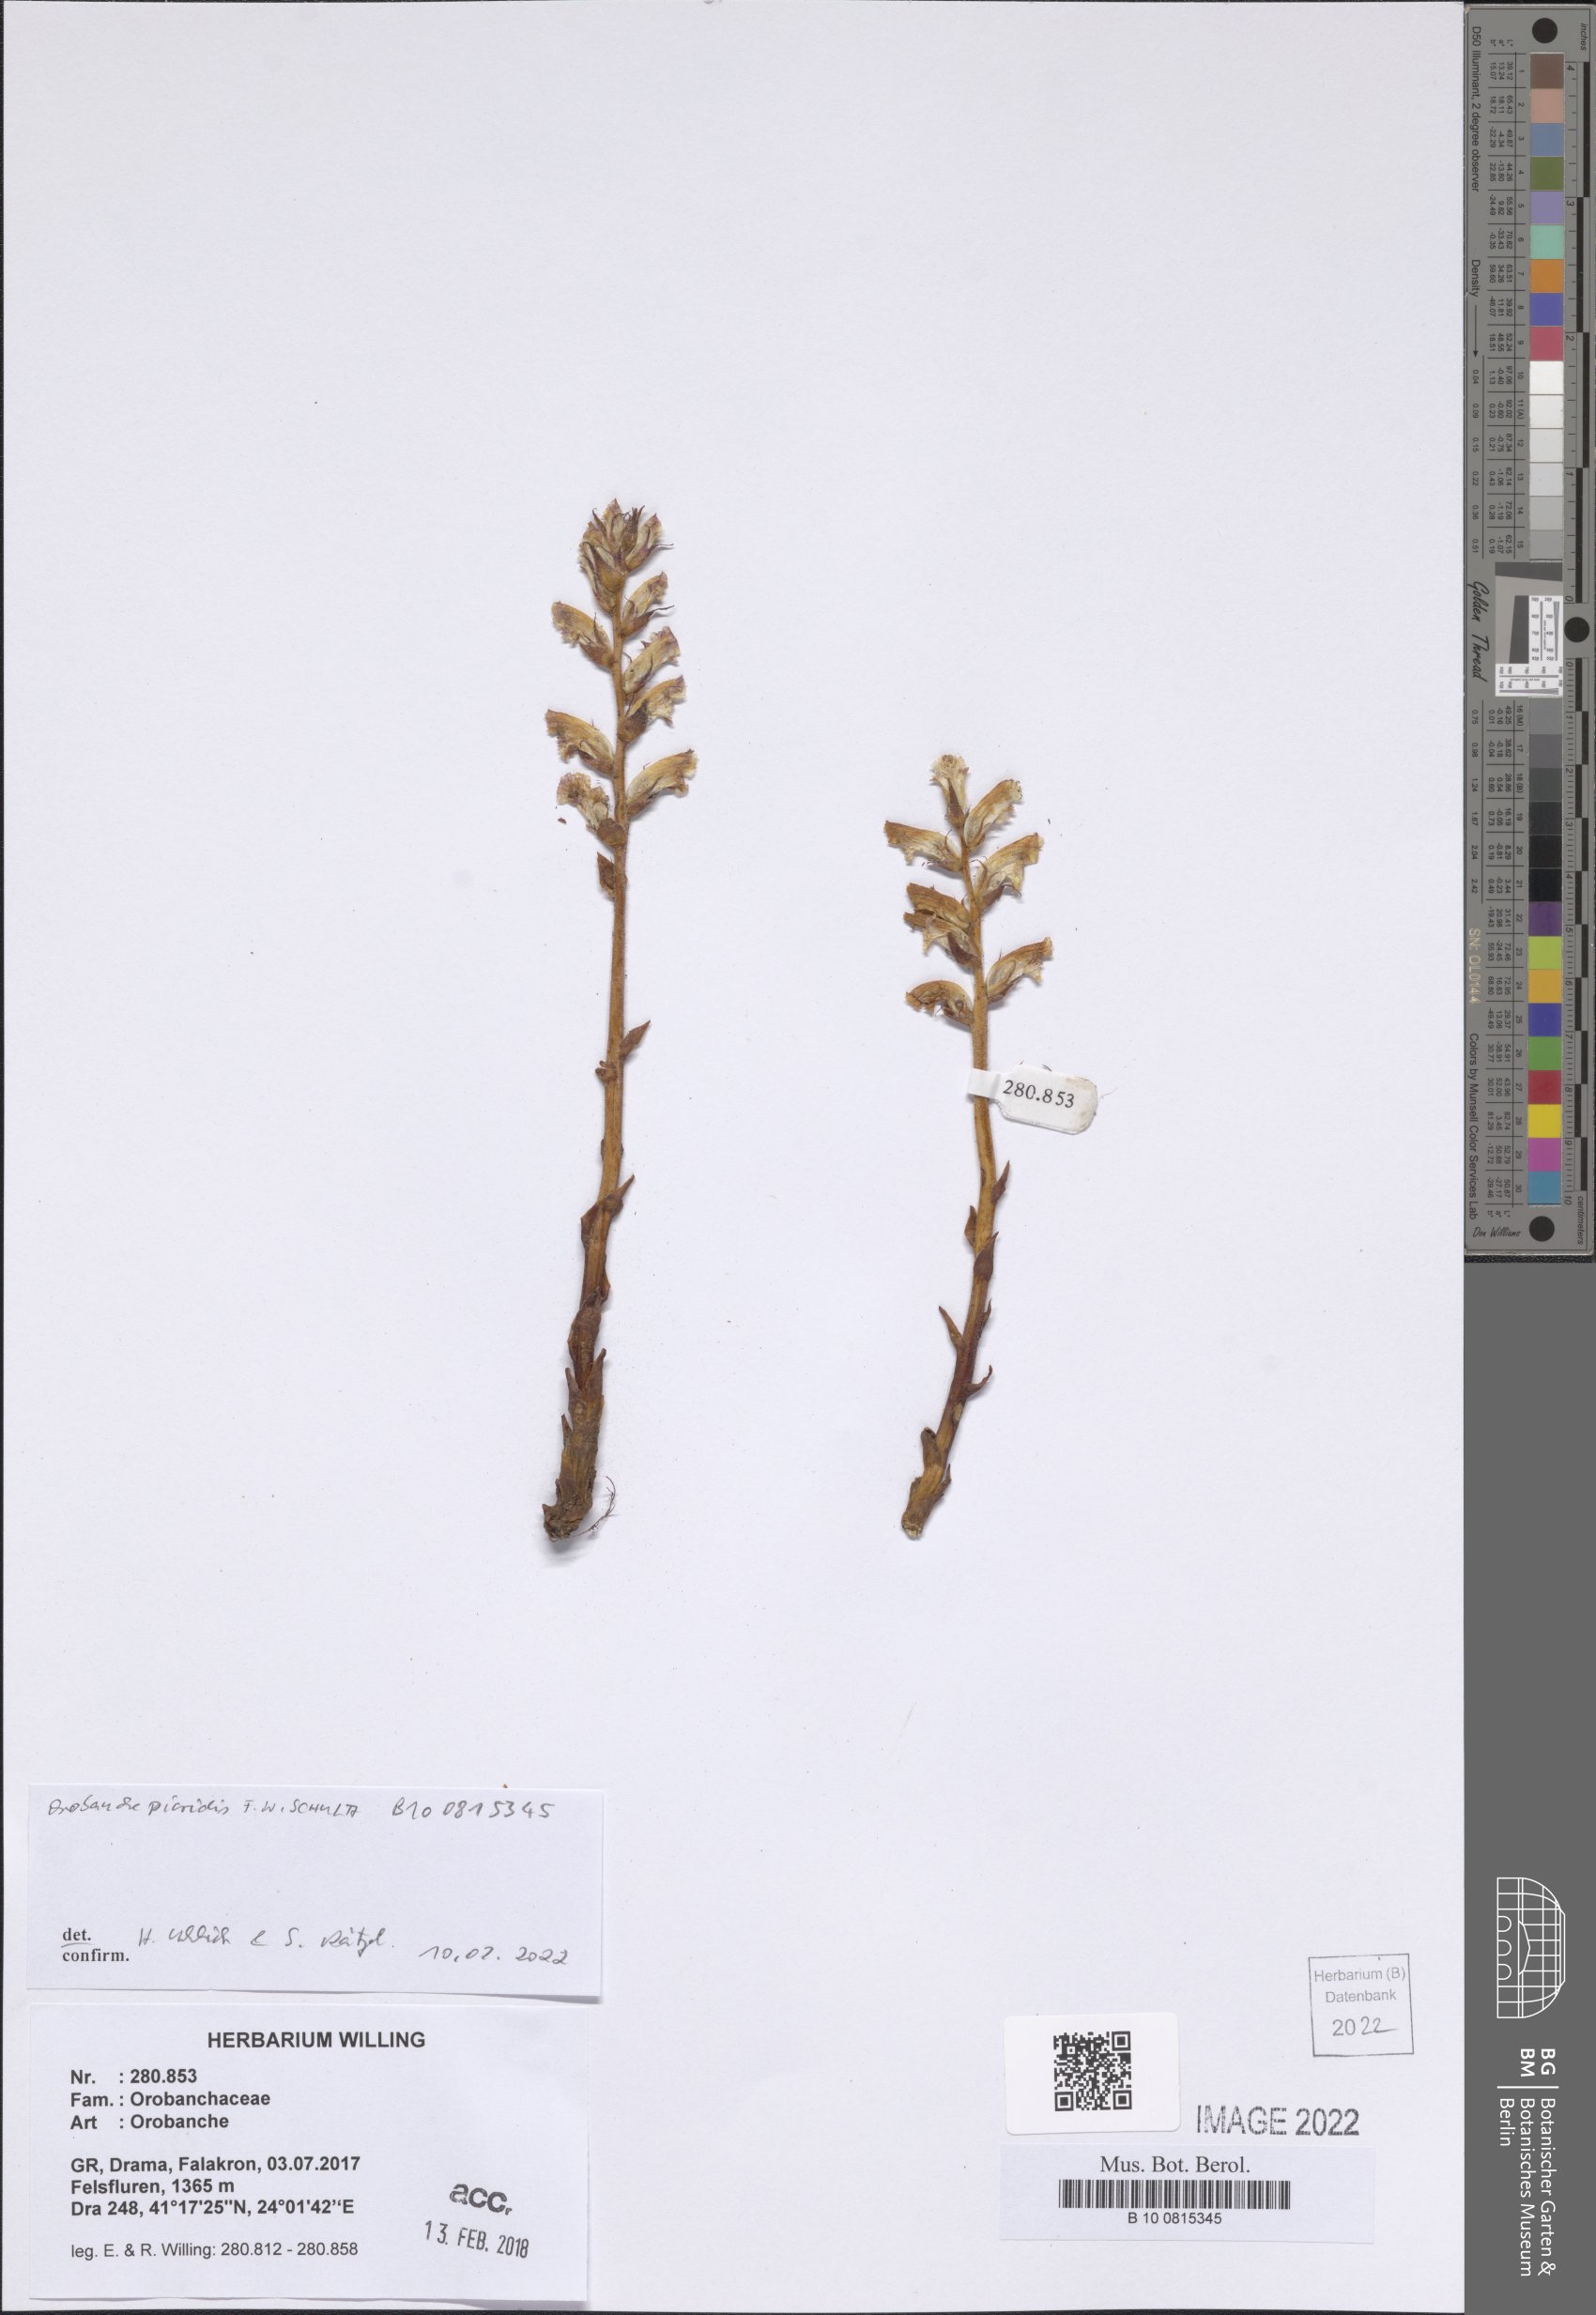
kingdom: Plantae
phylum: Tracheophyta
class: Magnoliopsida
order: Lamiales
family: Orobanchaceae
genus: Orobanche
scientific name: Orobanche picridis
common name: Oxtongue broomrape
